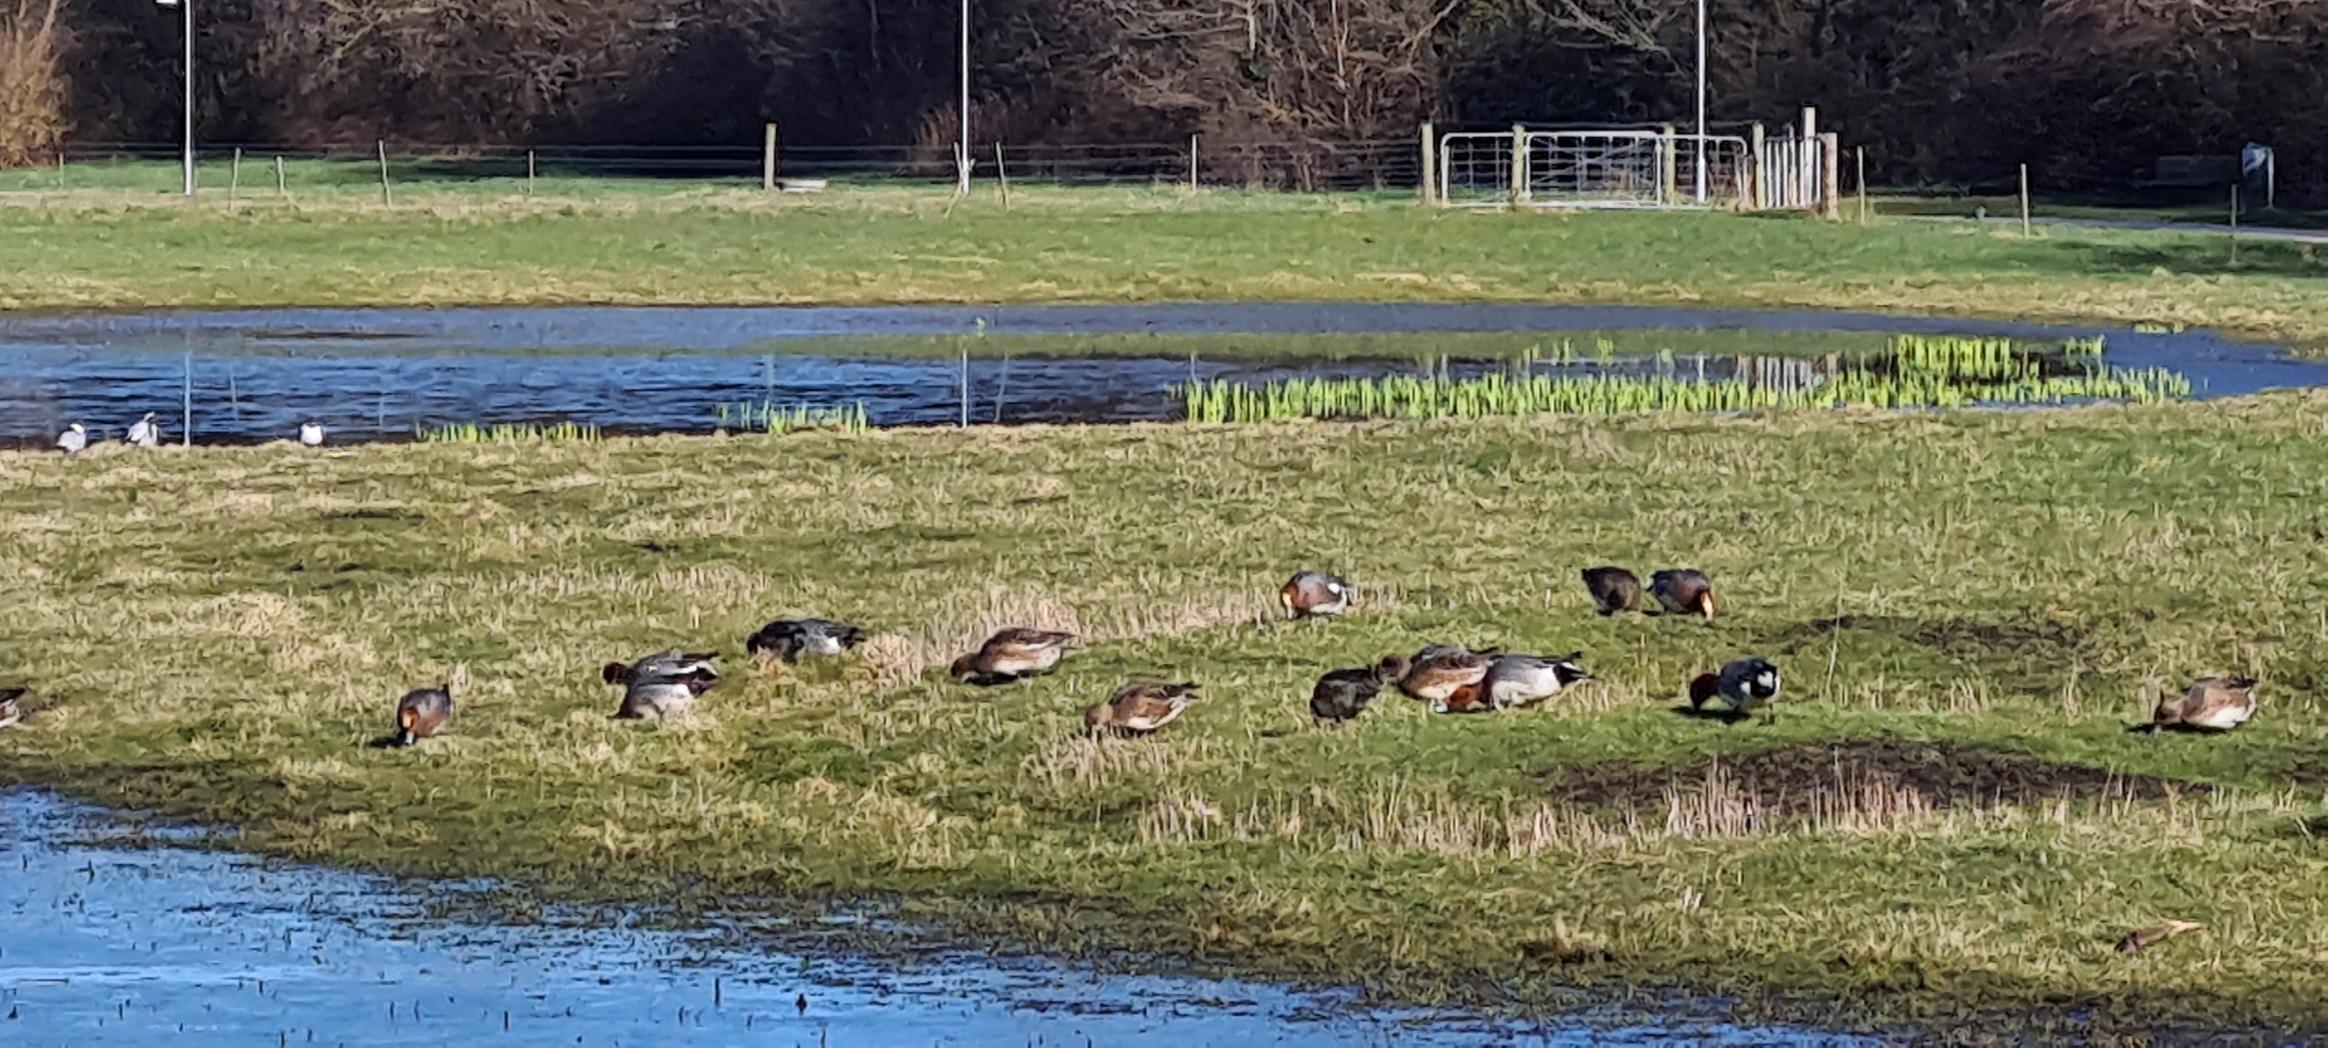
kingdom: Animalia
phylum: Chordata
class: Aves
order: Anseriformes
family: Anatidae
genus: Mareca
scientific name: Mareca penelope
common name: Pibeand
